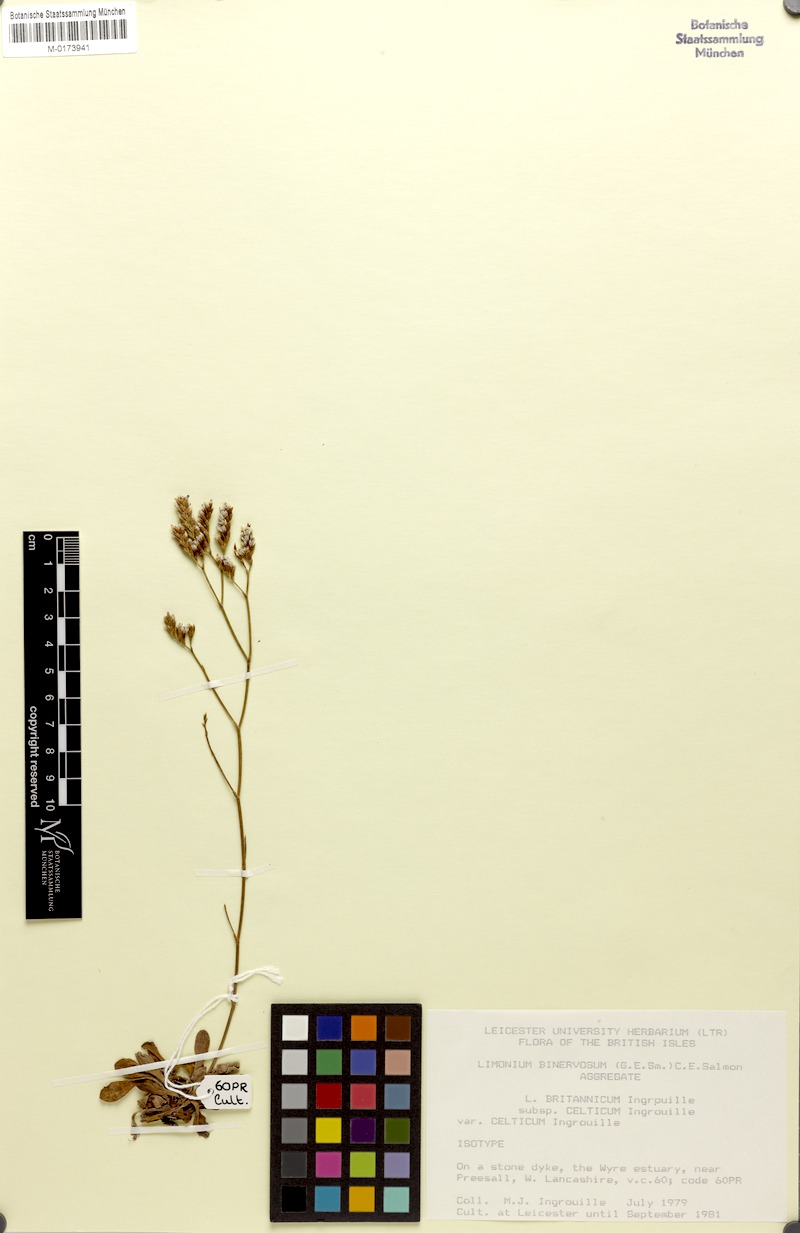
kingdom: Plantae
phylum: Tracheophyta
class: Magnoliopsida
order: Caryophyllales
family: Plumbaginaceae
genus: Limonium
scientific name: Limonium britannicum
